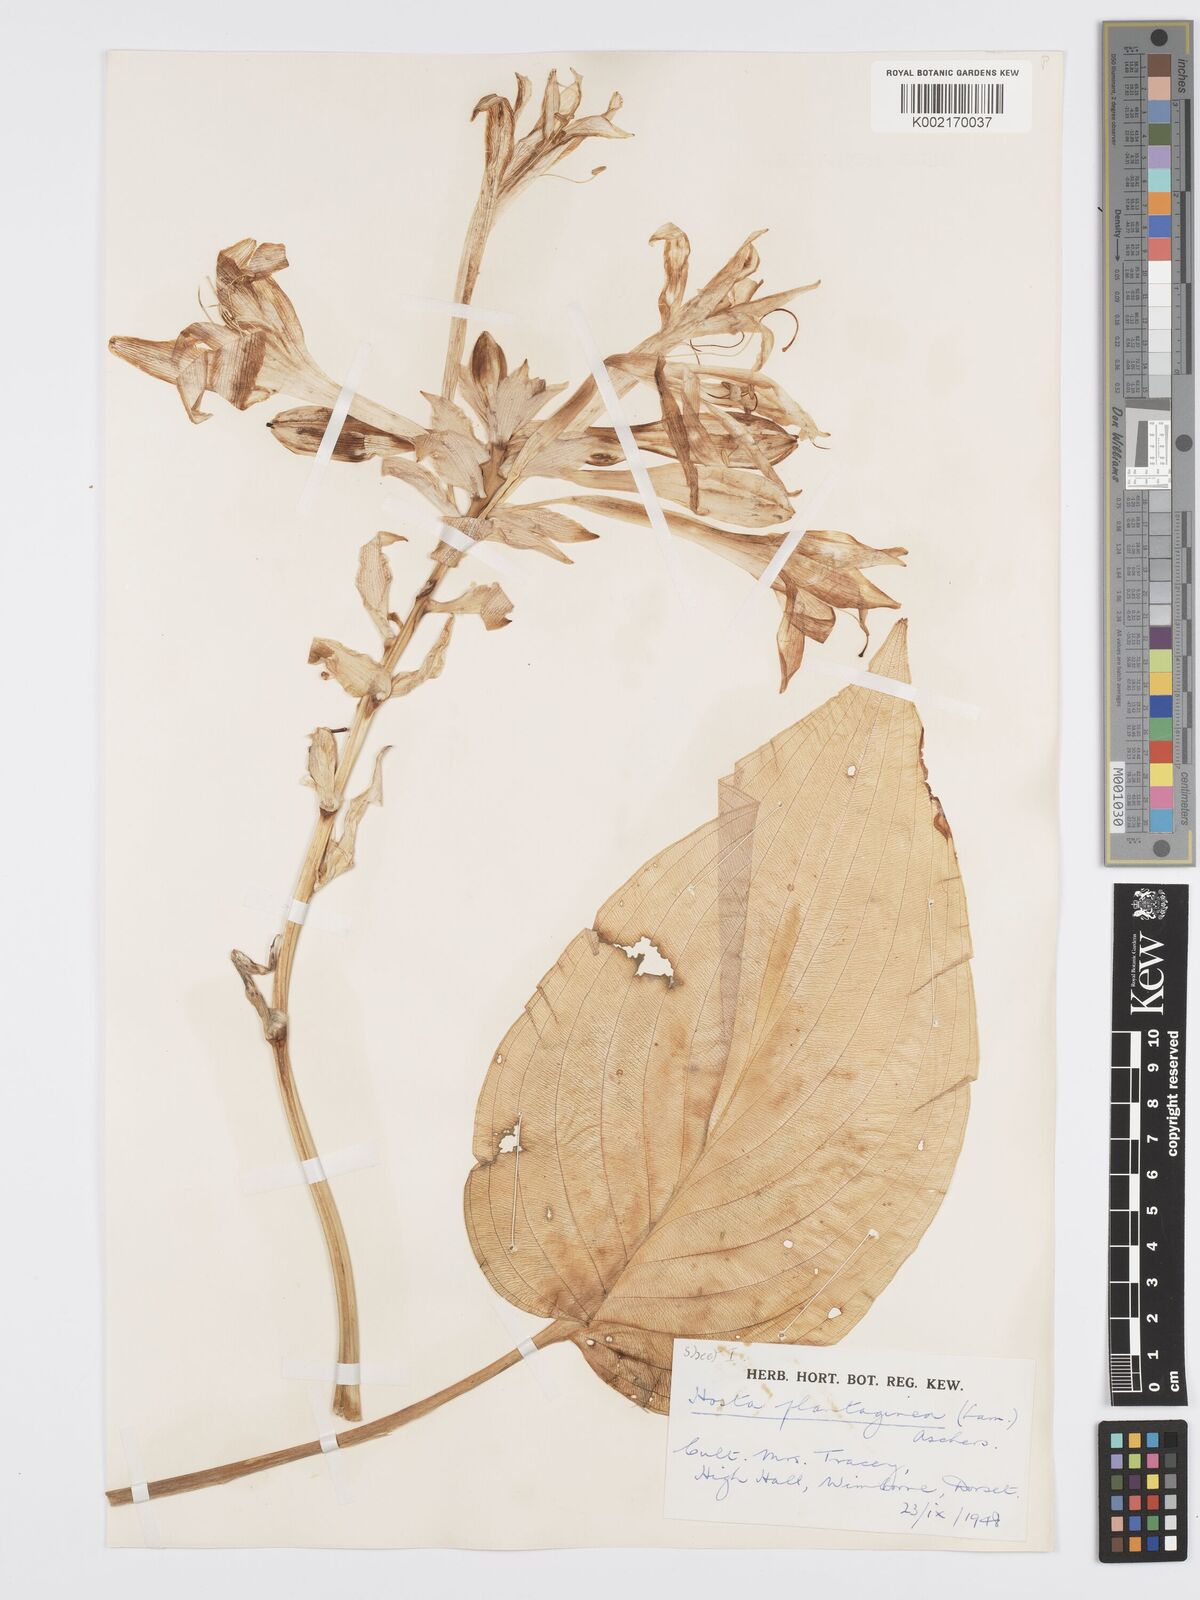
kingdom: Plantae
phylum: Tracheophyta
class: Liliopsida
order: Asparagales
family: Asparagaceae
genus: Hosta
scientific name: Hosta plantaginea
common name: August-lily
